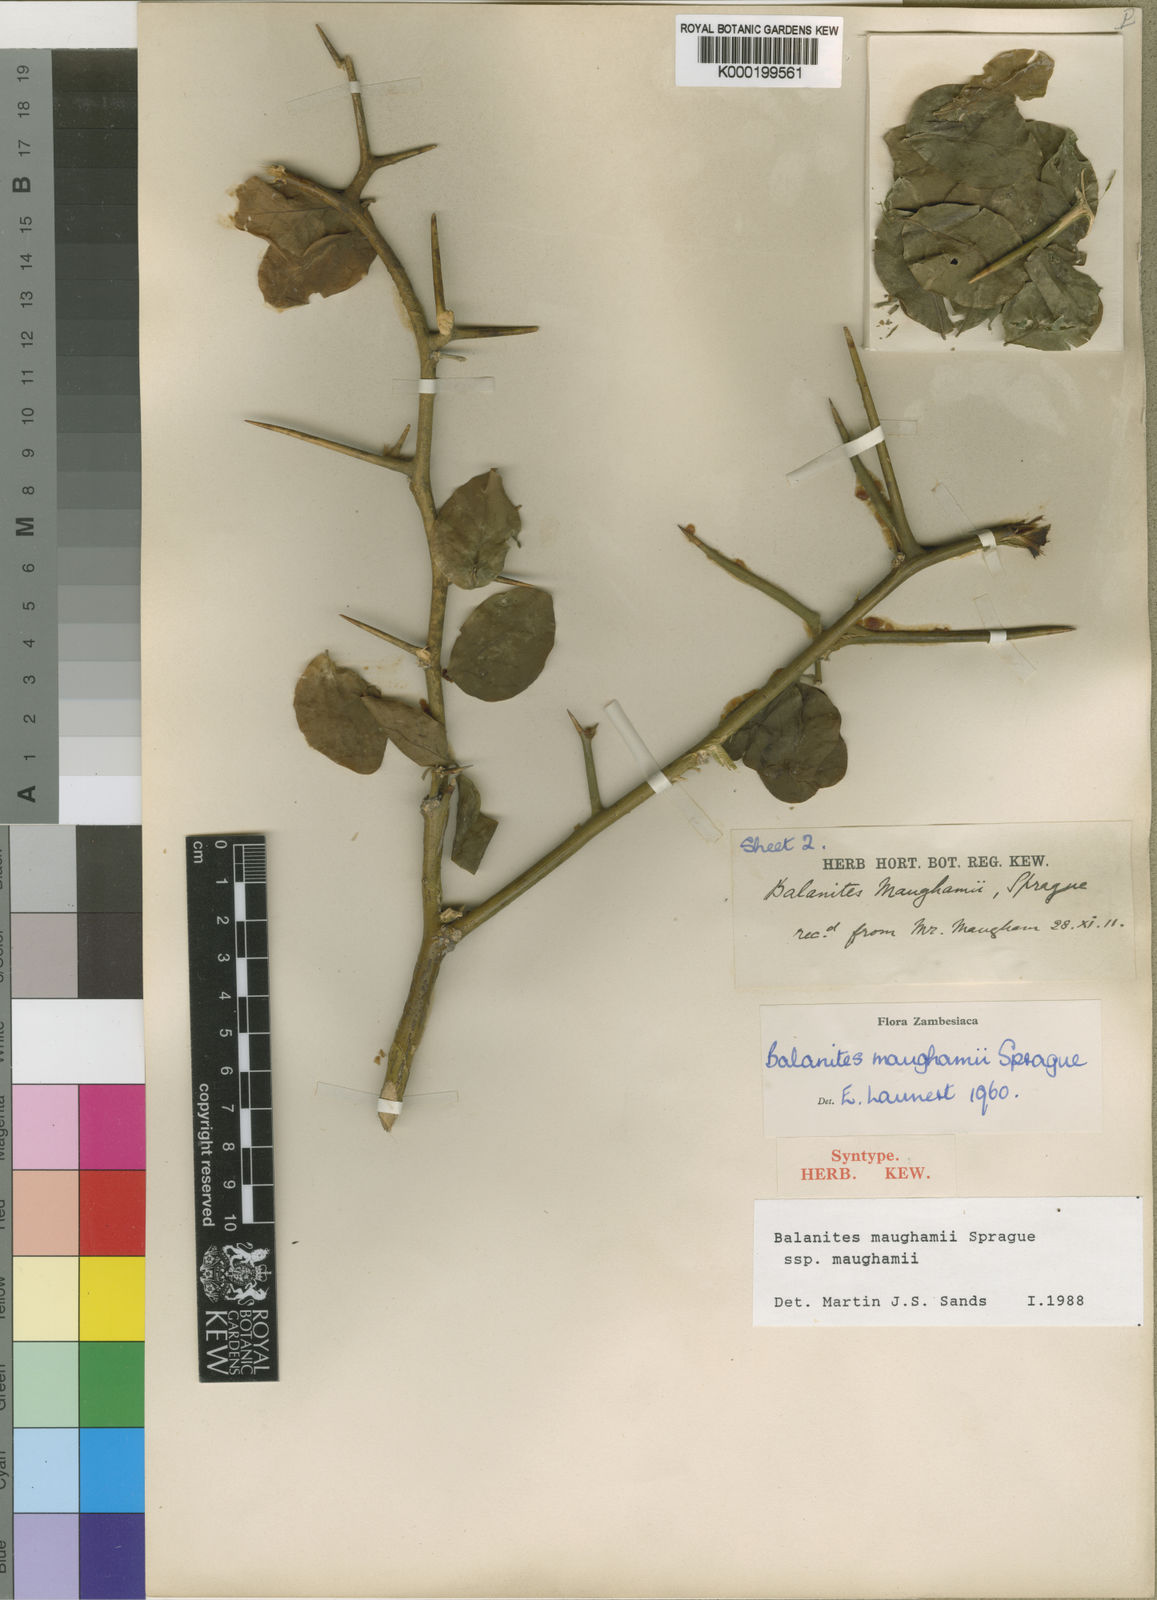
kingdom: Plantae
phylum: Tracheophyta
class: Magnoliopsida
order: Zygophyllales
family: Zygophyllaceae
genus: Balanites
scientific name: Balanites maughamii
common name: Torchwood
